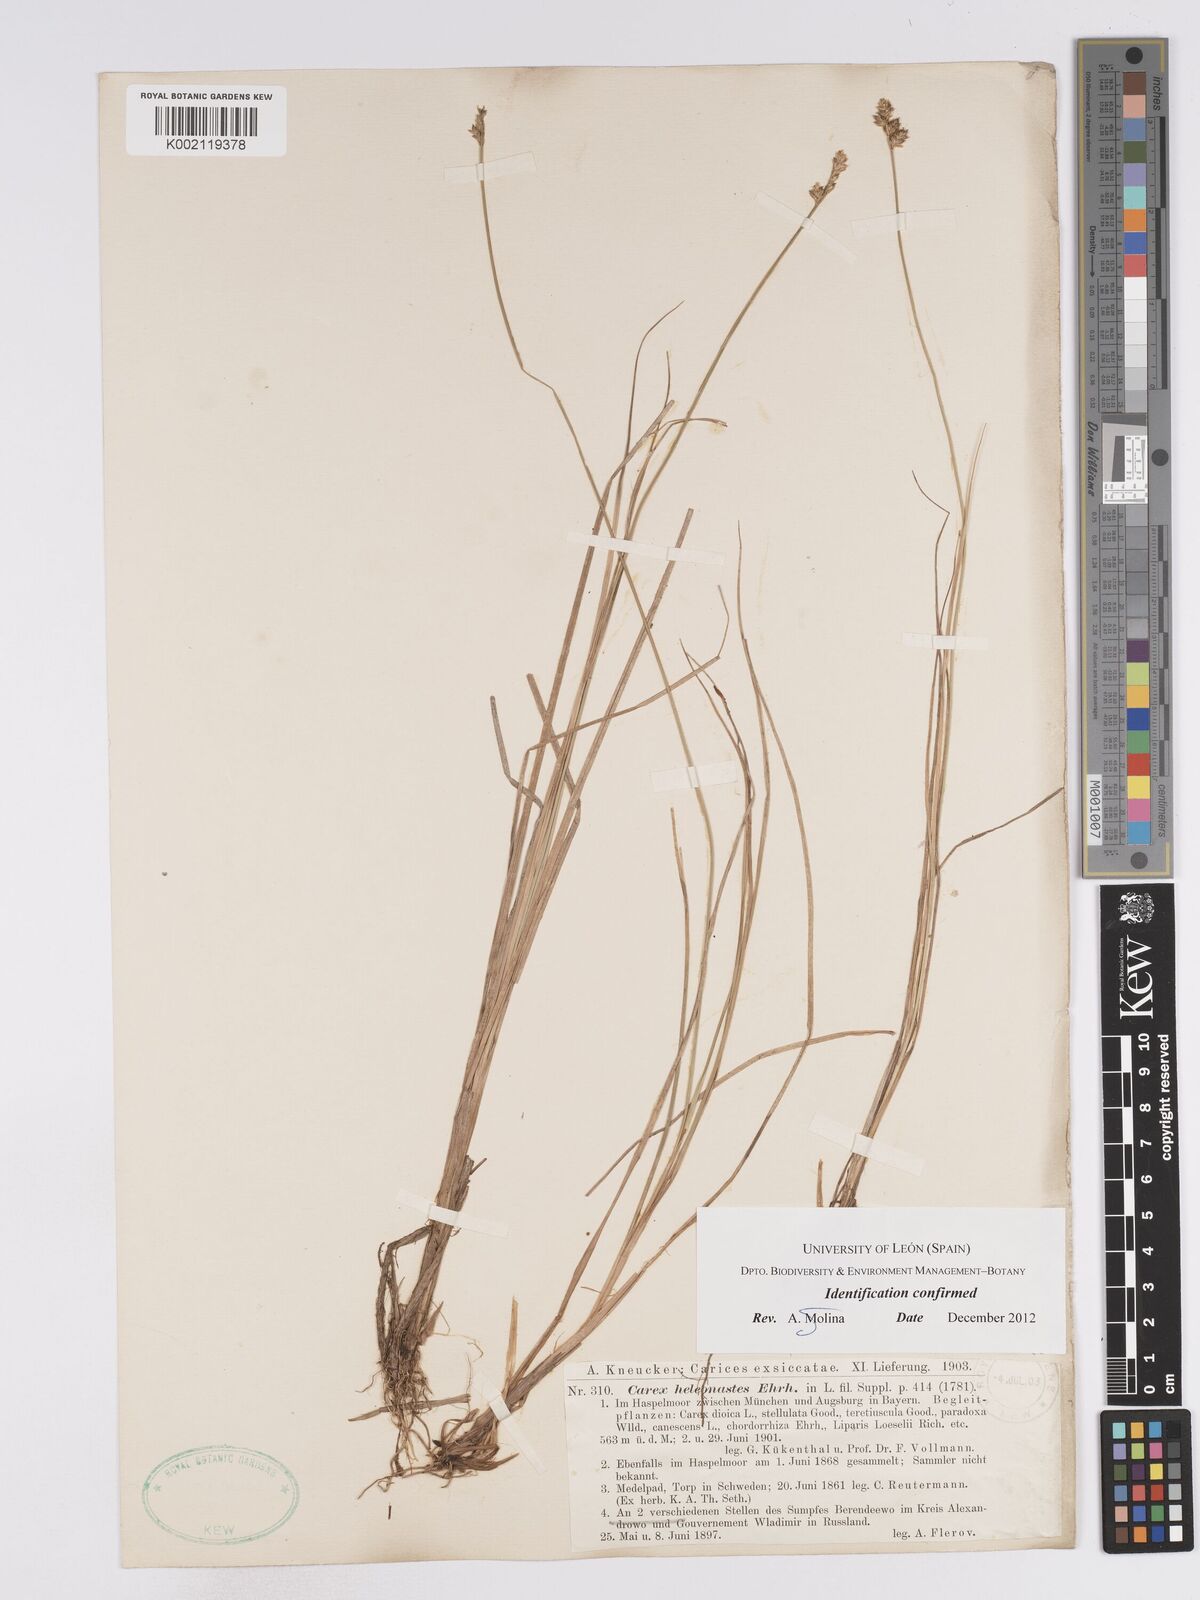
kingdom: Plantae
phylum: Tracheophyta
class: Liliopsida
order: Poales
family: Cyperaceae
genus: Carex
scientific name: Carex heleonastes
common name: Hudson bay sedge
